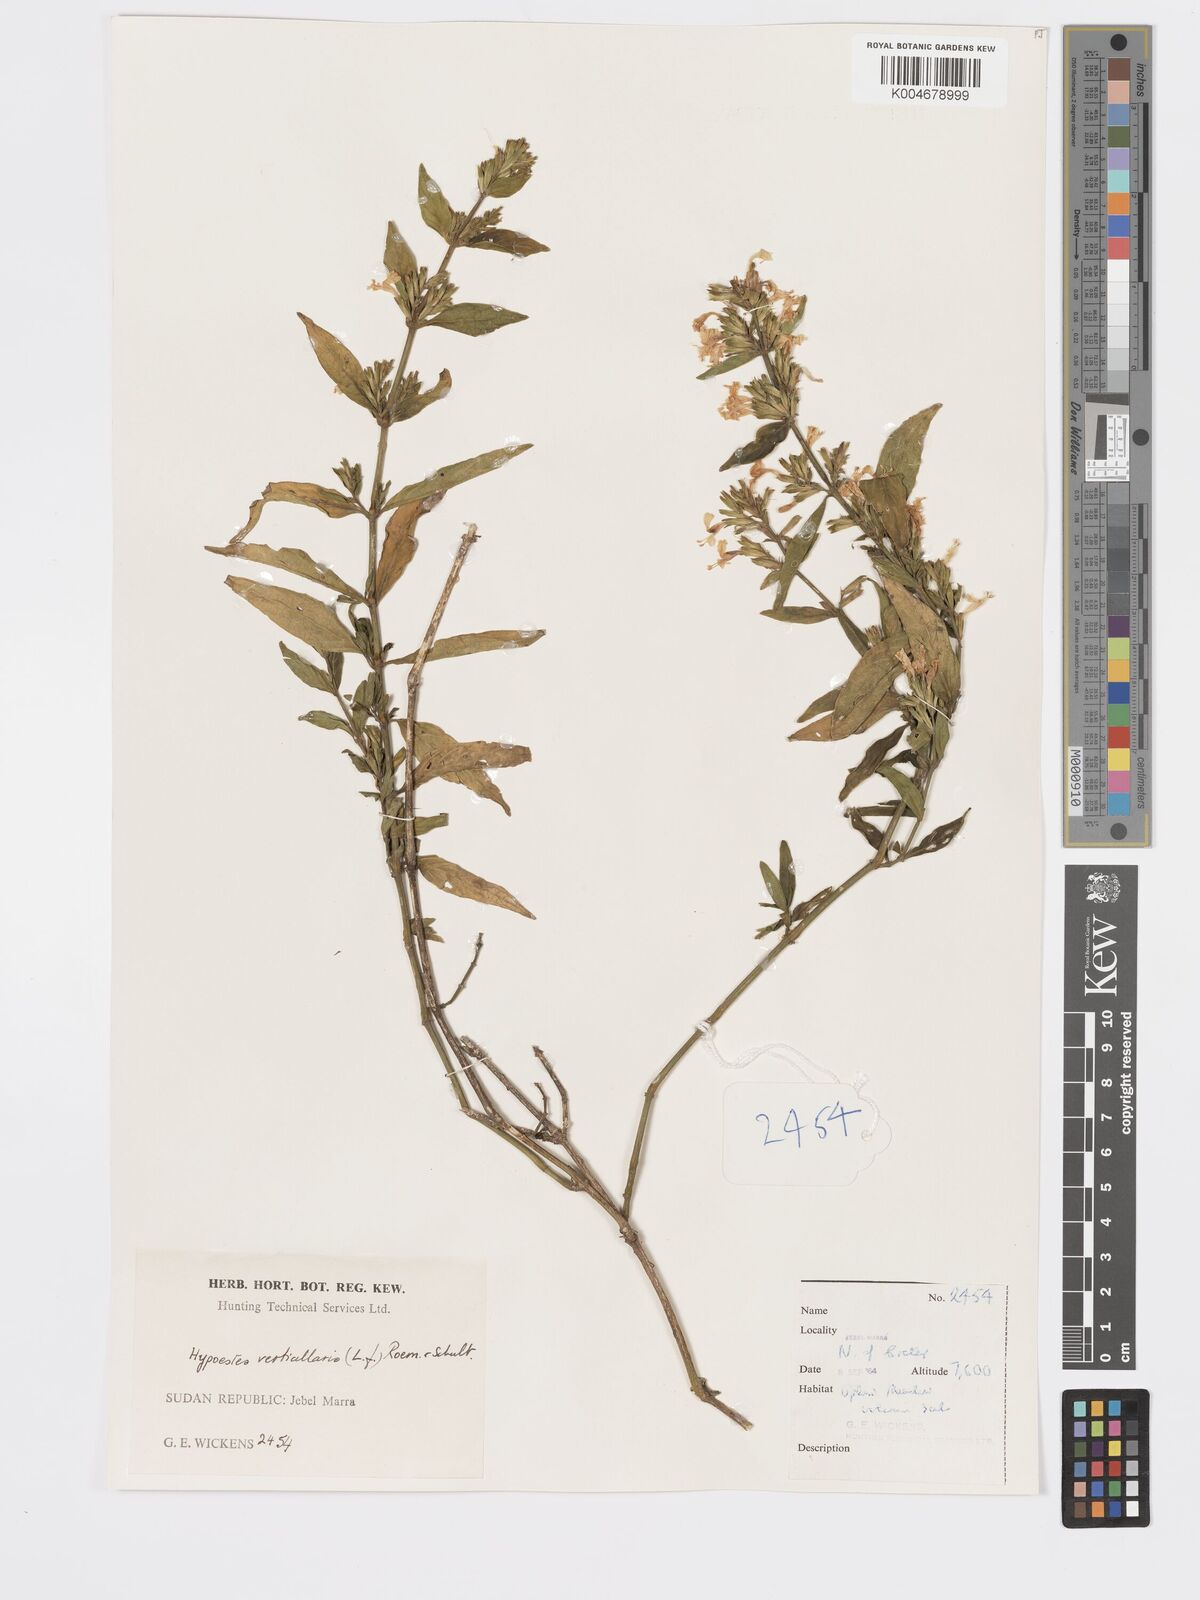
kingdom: Plantae
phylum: Tracheophyta
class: Magnoliopsida
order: Lamiales
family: Acanthaceae
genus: Hypoestes
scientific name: Hypoestes forskaolii
